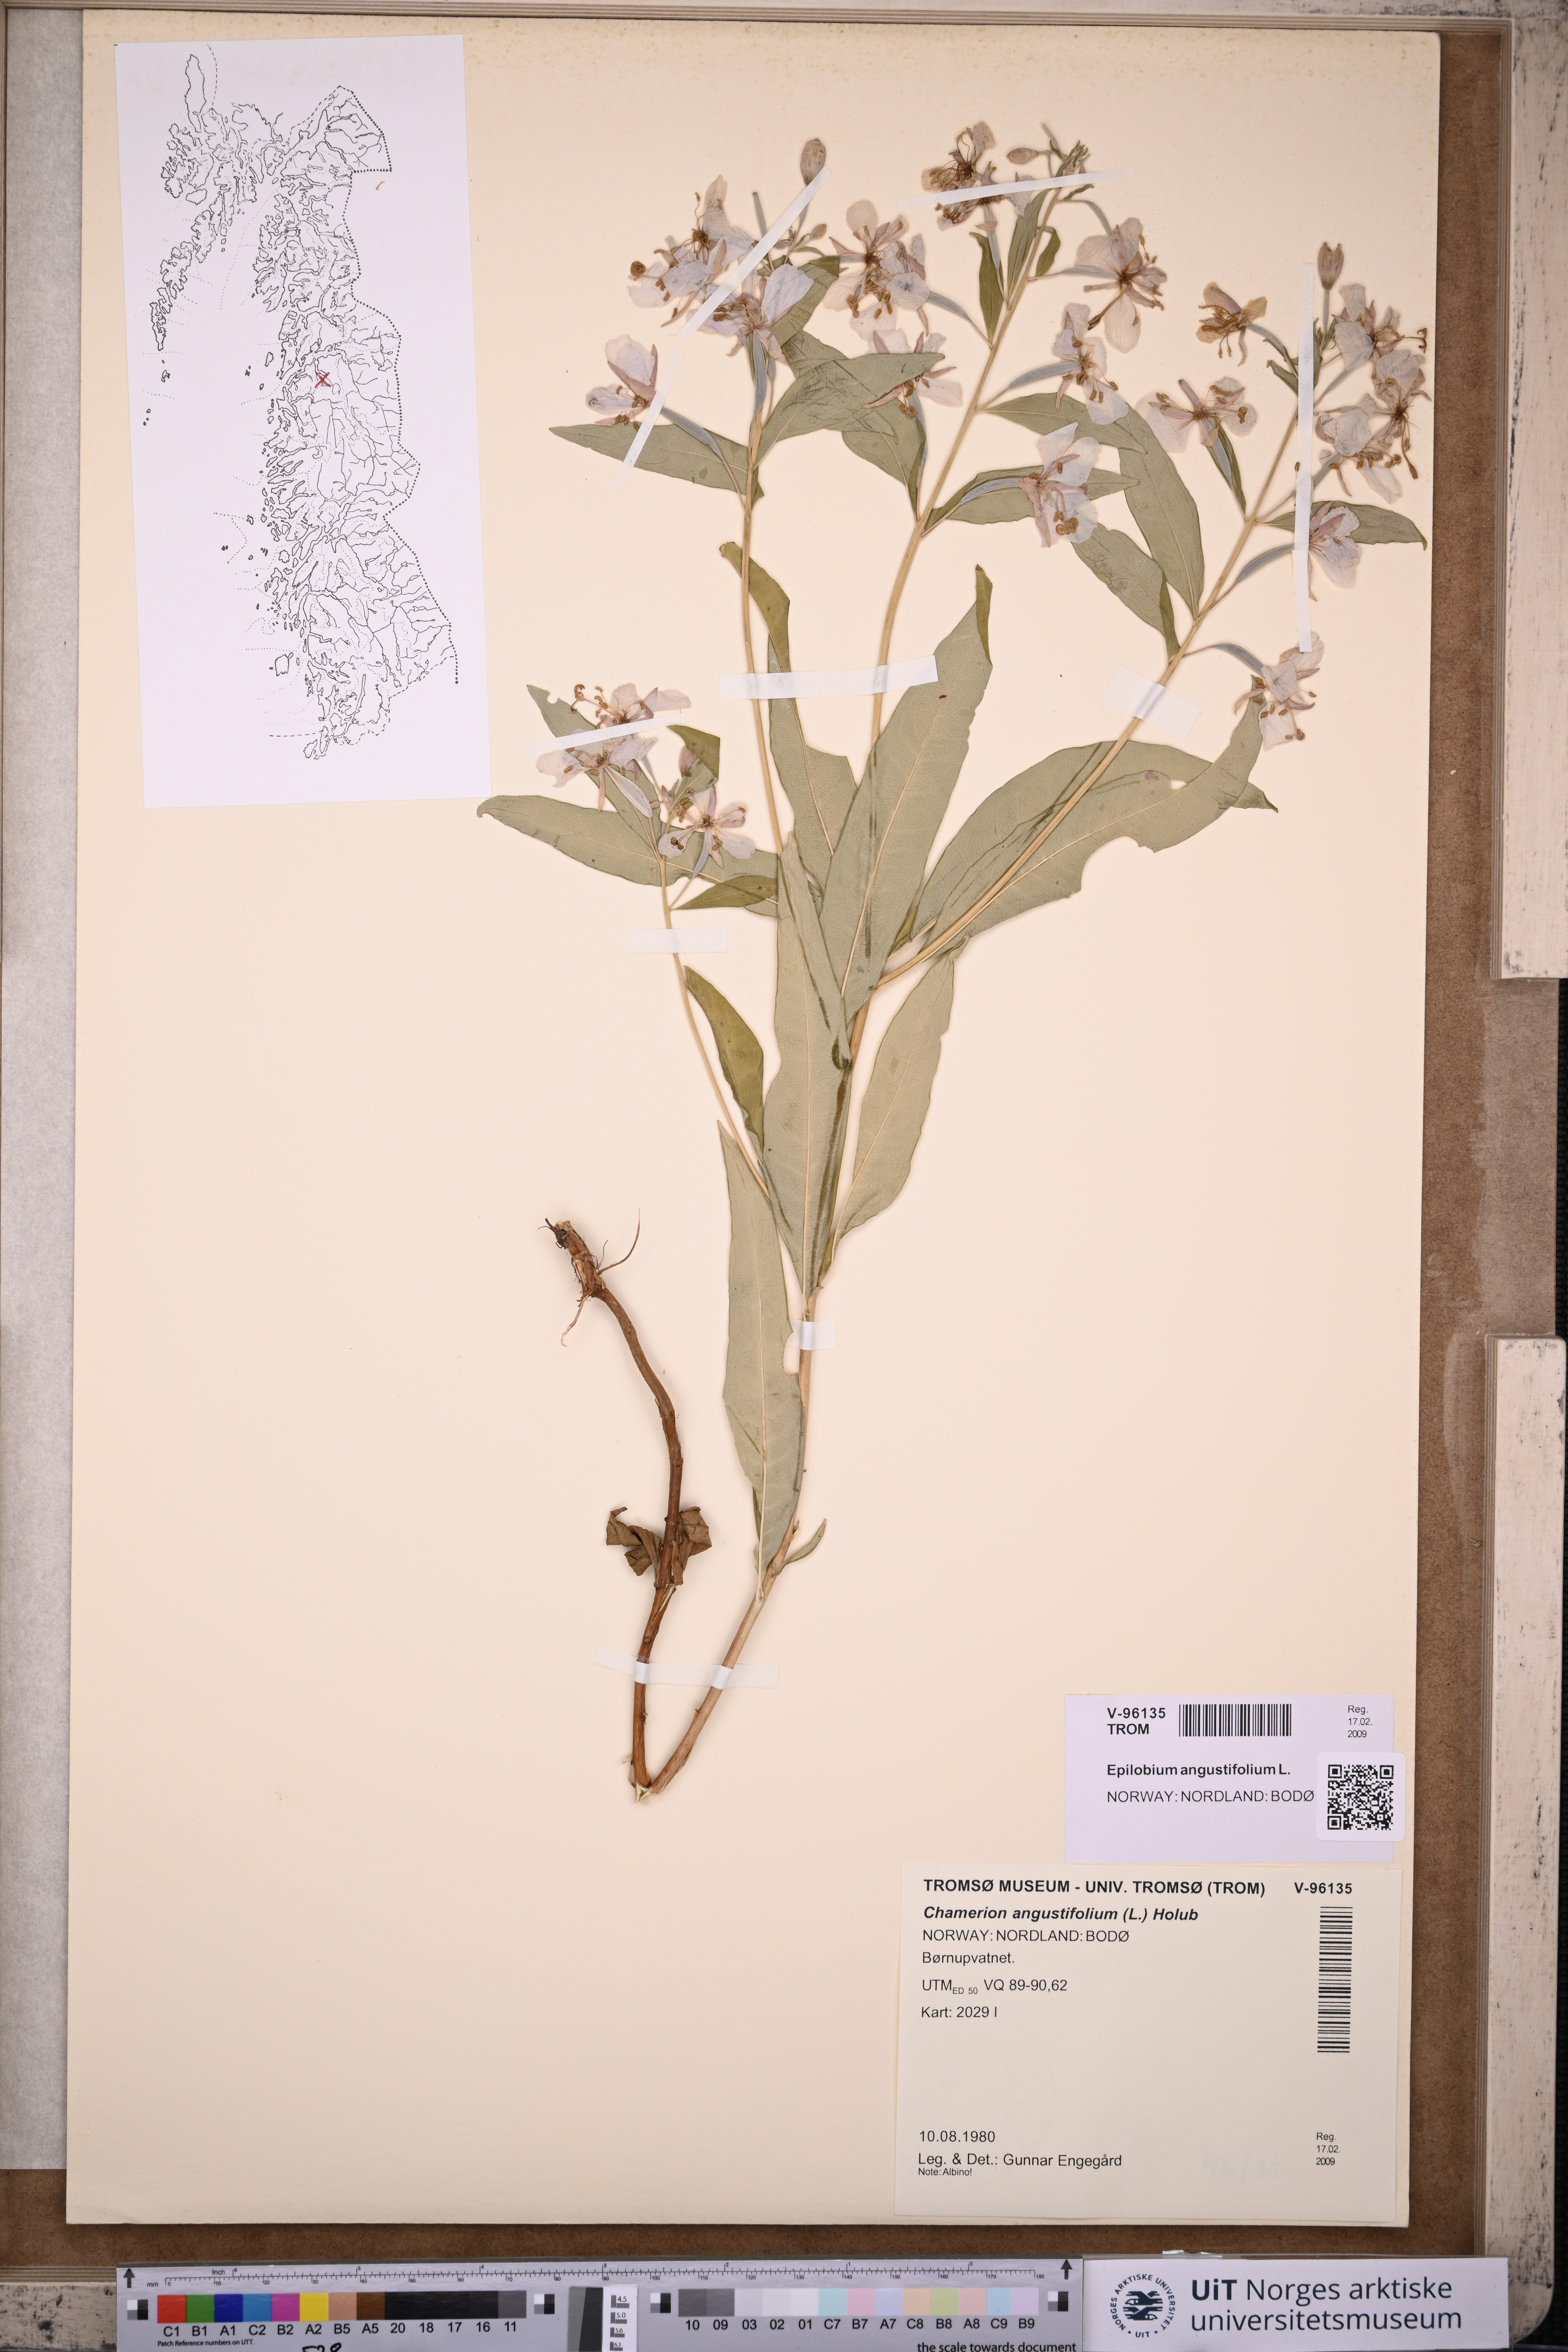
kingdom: Plantae
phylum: Tracheophyta
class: Magnoliopsida
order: Myrtales
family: Onagraceae
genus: Chamaenerion
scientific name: Chamaenerion angustifolium
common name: Fireweed
